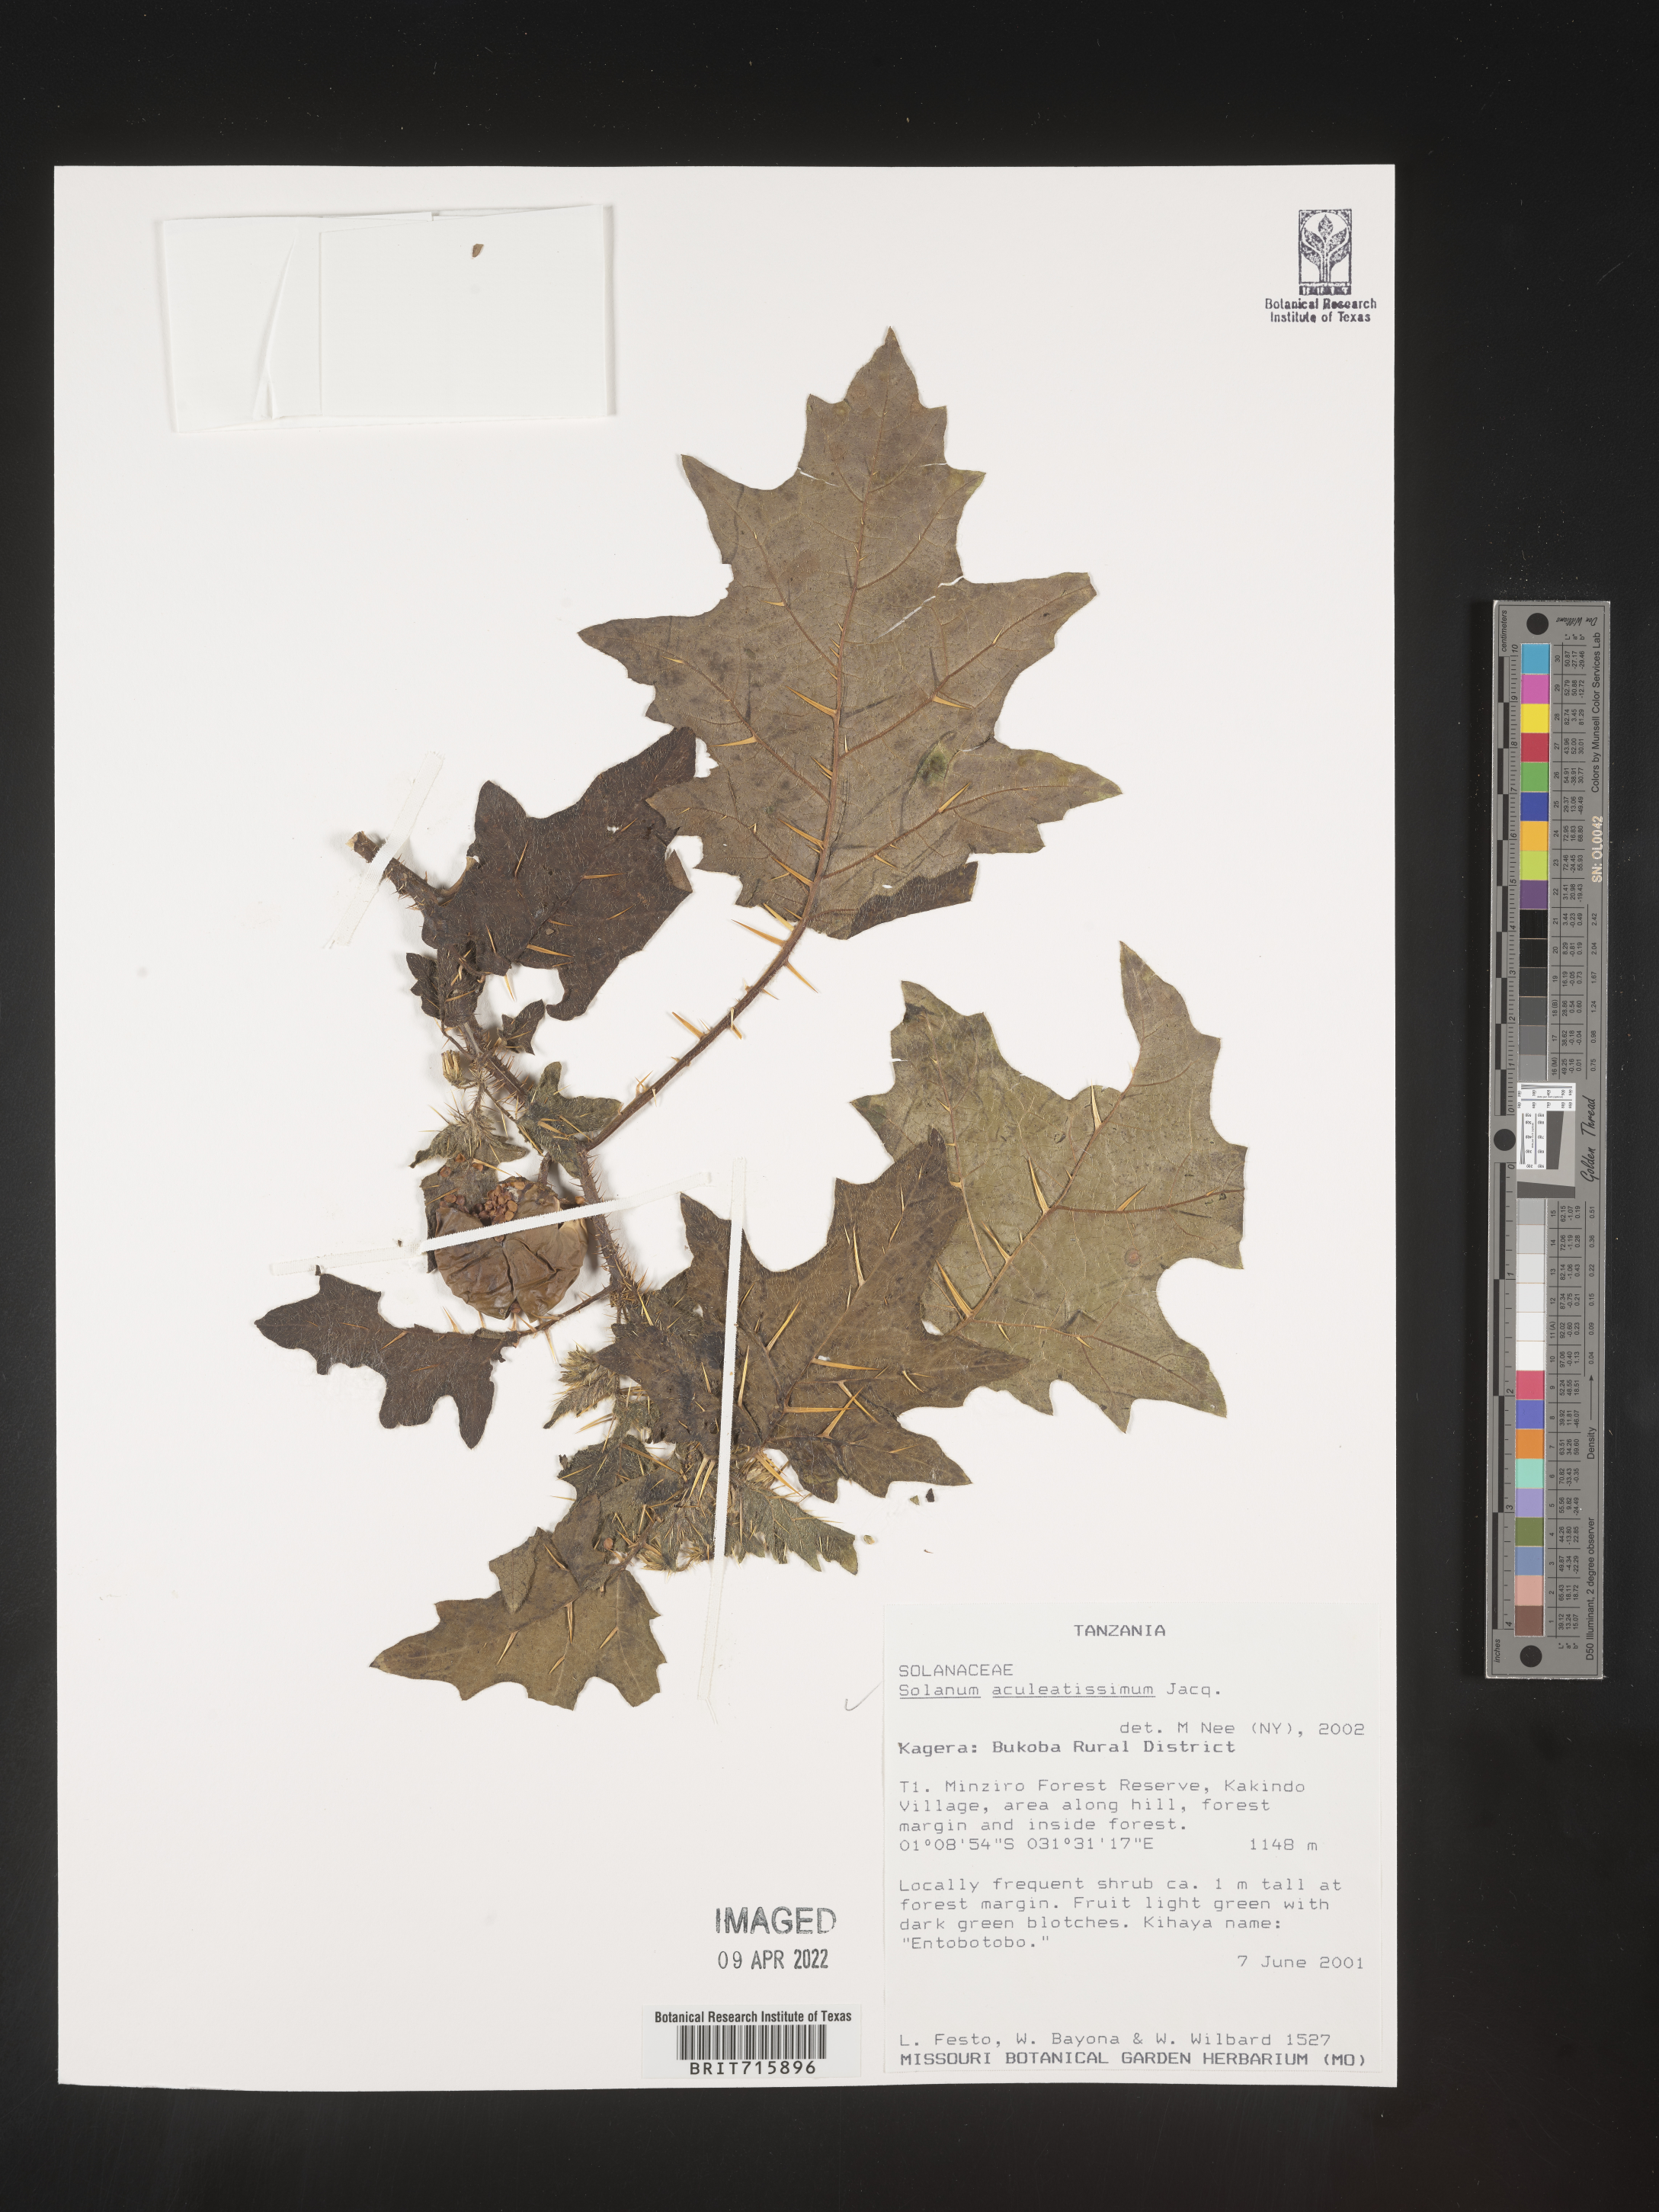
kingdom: Plantae
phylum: Tracheophyta
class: Magnoliopsida
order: Solanales
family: Solanaceae
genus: Solanum
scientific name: Solanum
